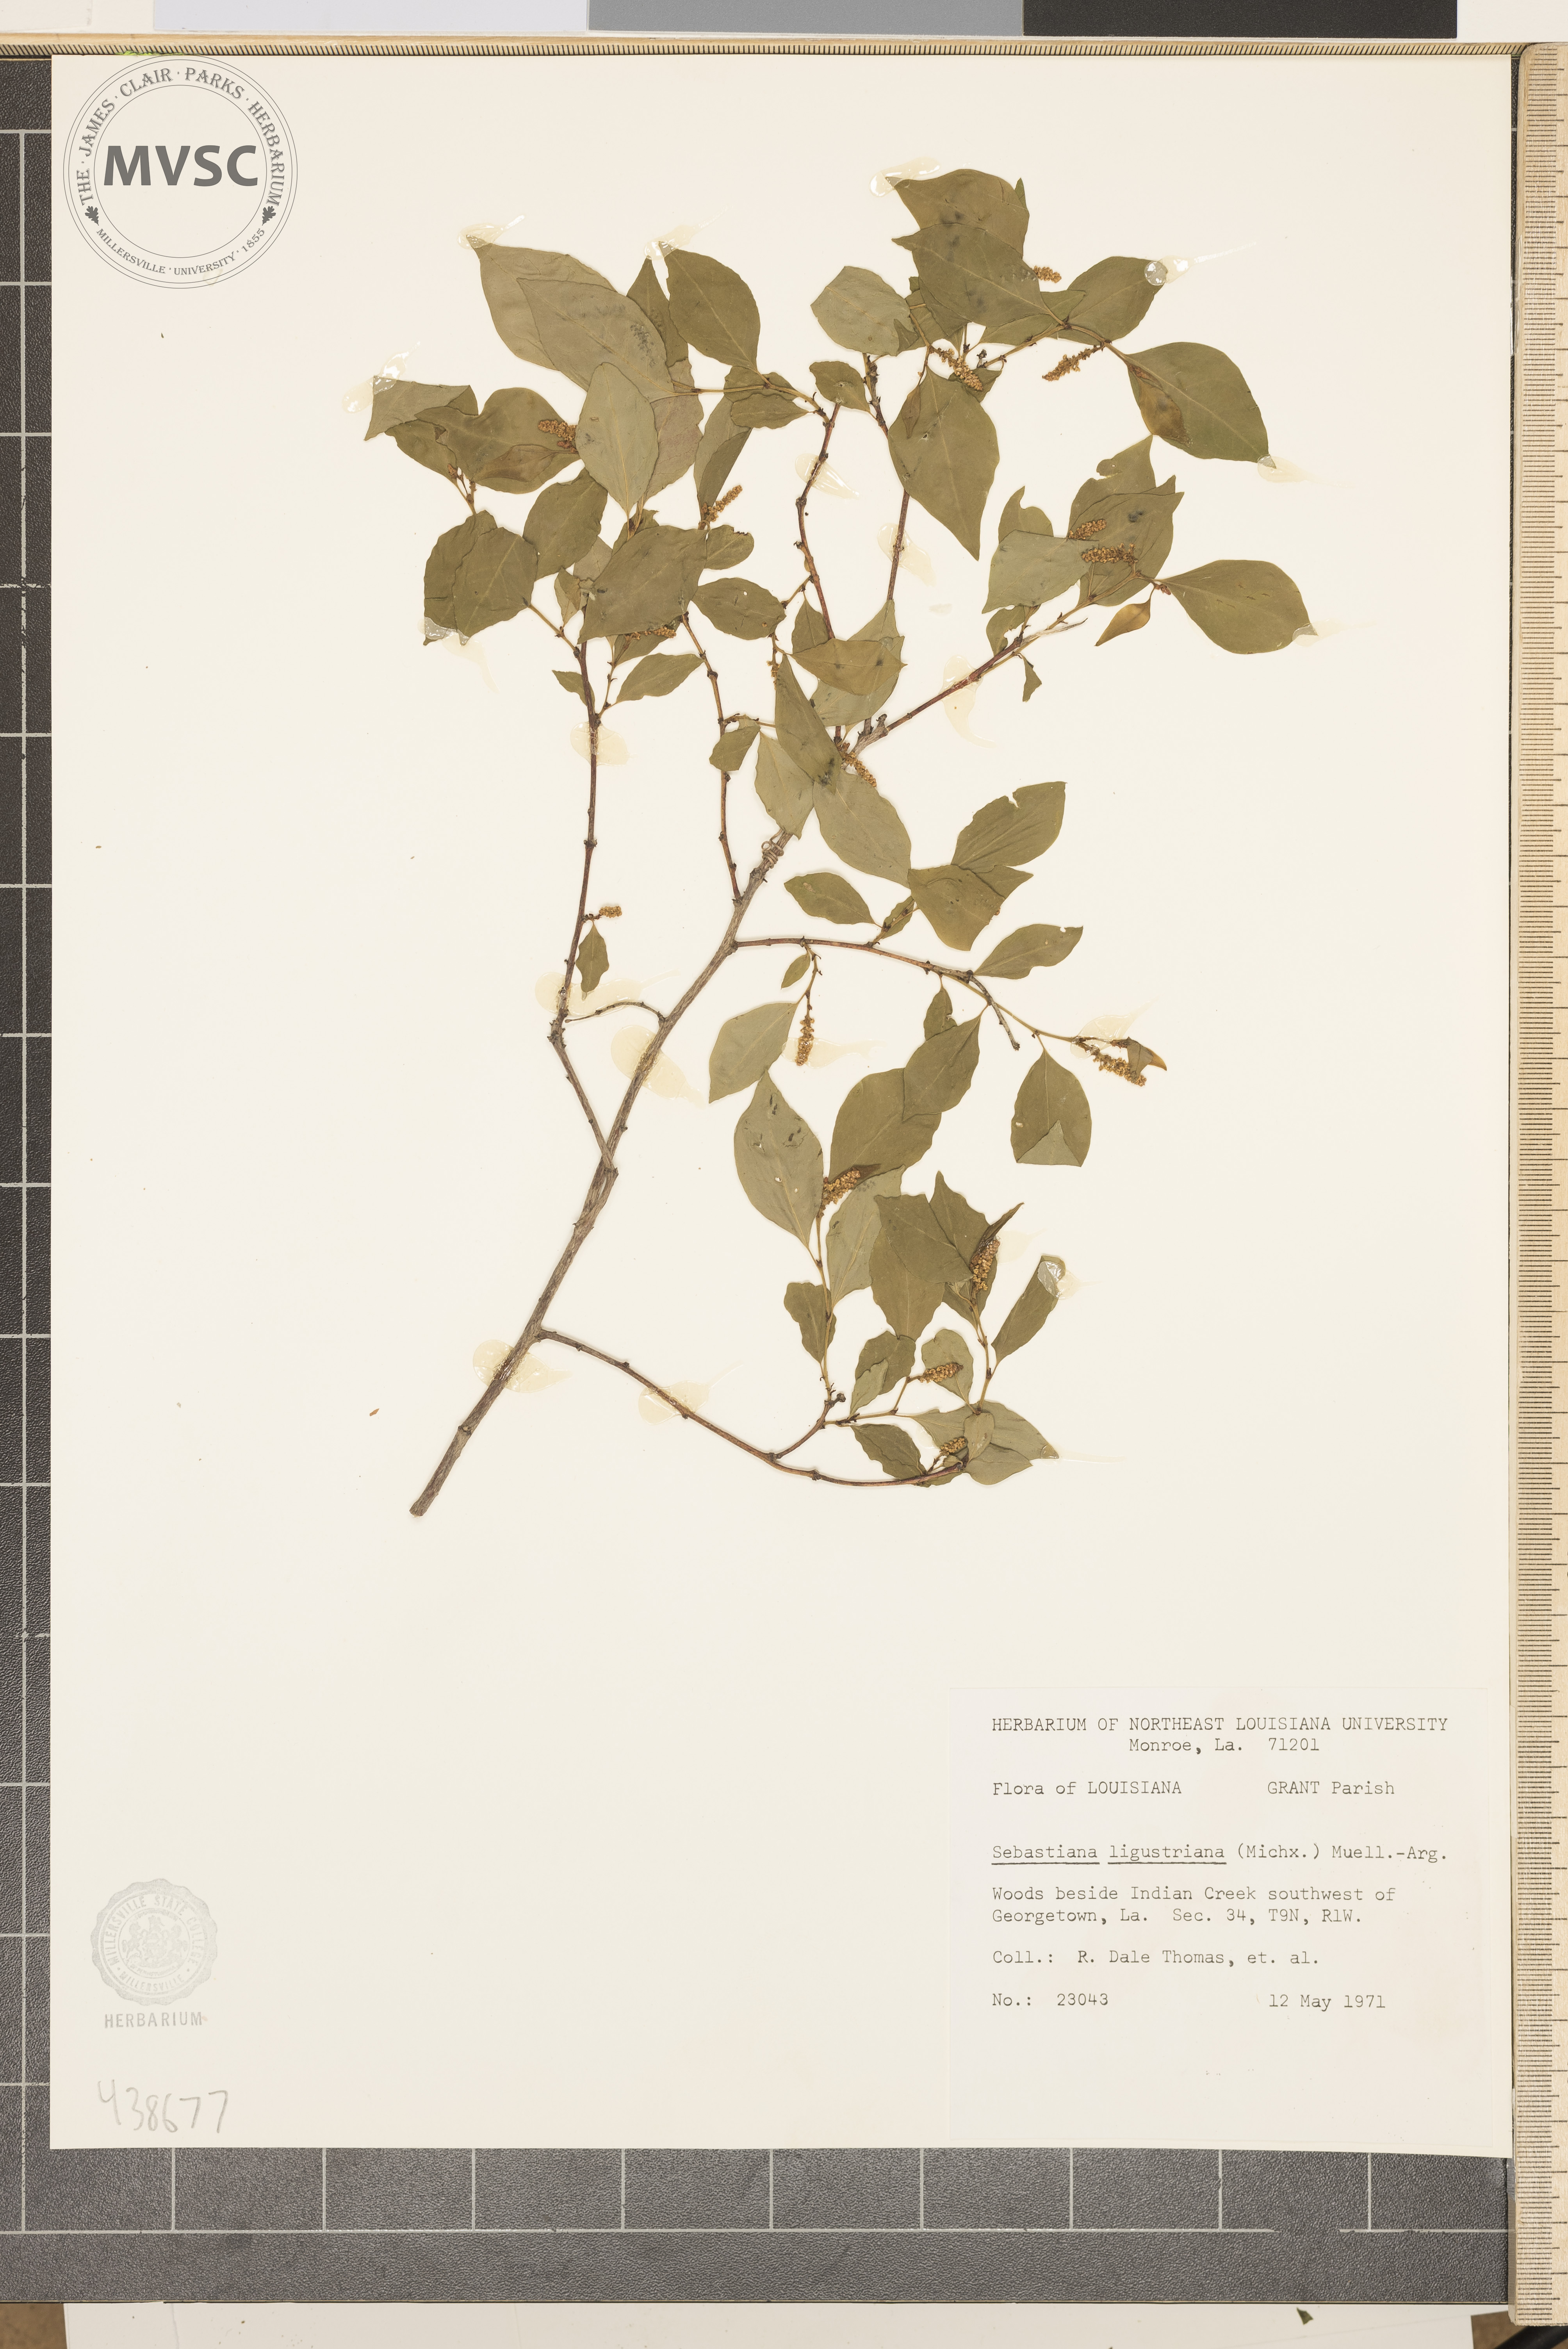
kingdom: Plantae
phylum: Tracheophyta
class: Magnoliopsida
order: Malpighiales
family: Euphorbiaceae
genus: Ditrysinia
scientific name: Ditrysinia fruticosa
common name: Gulf sebastian-bush
